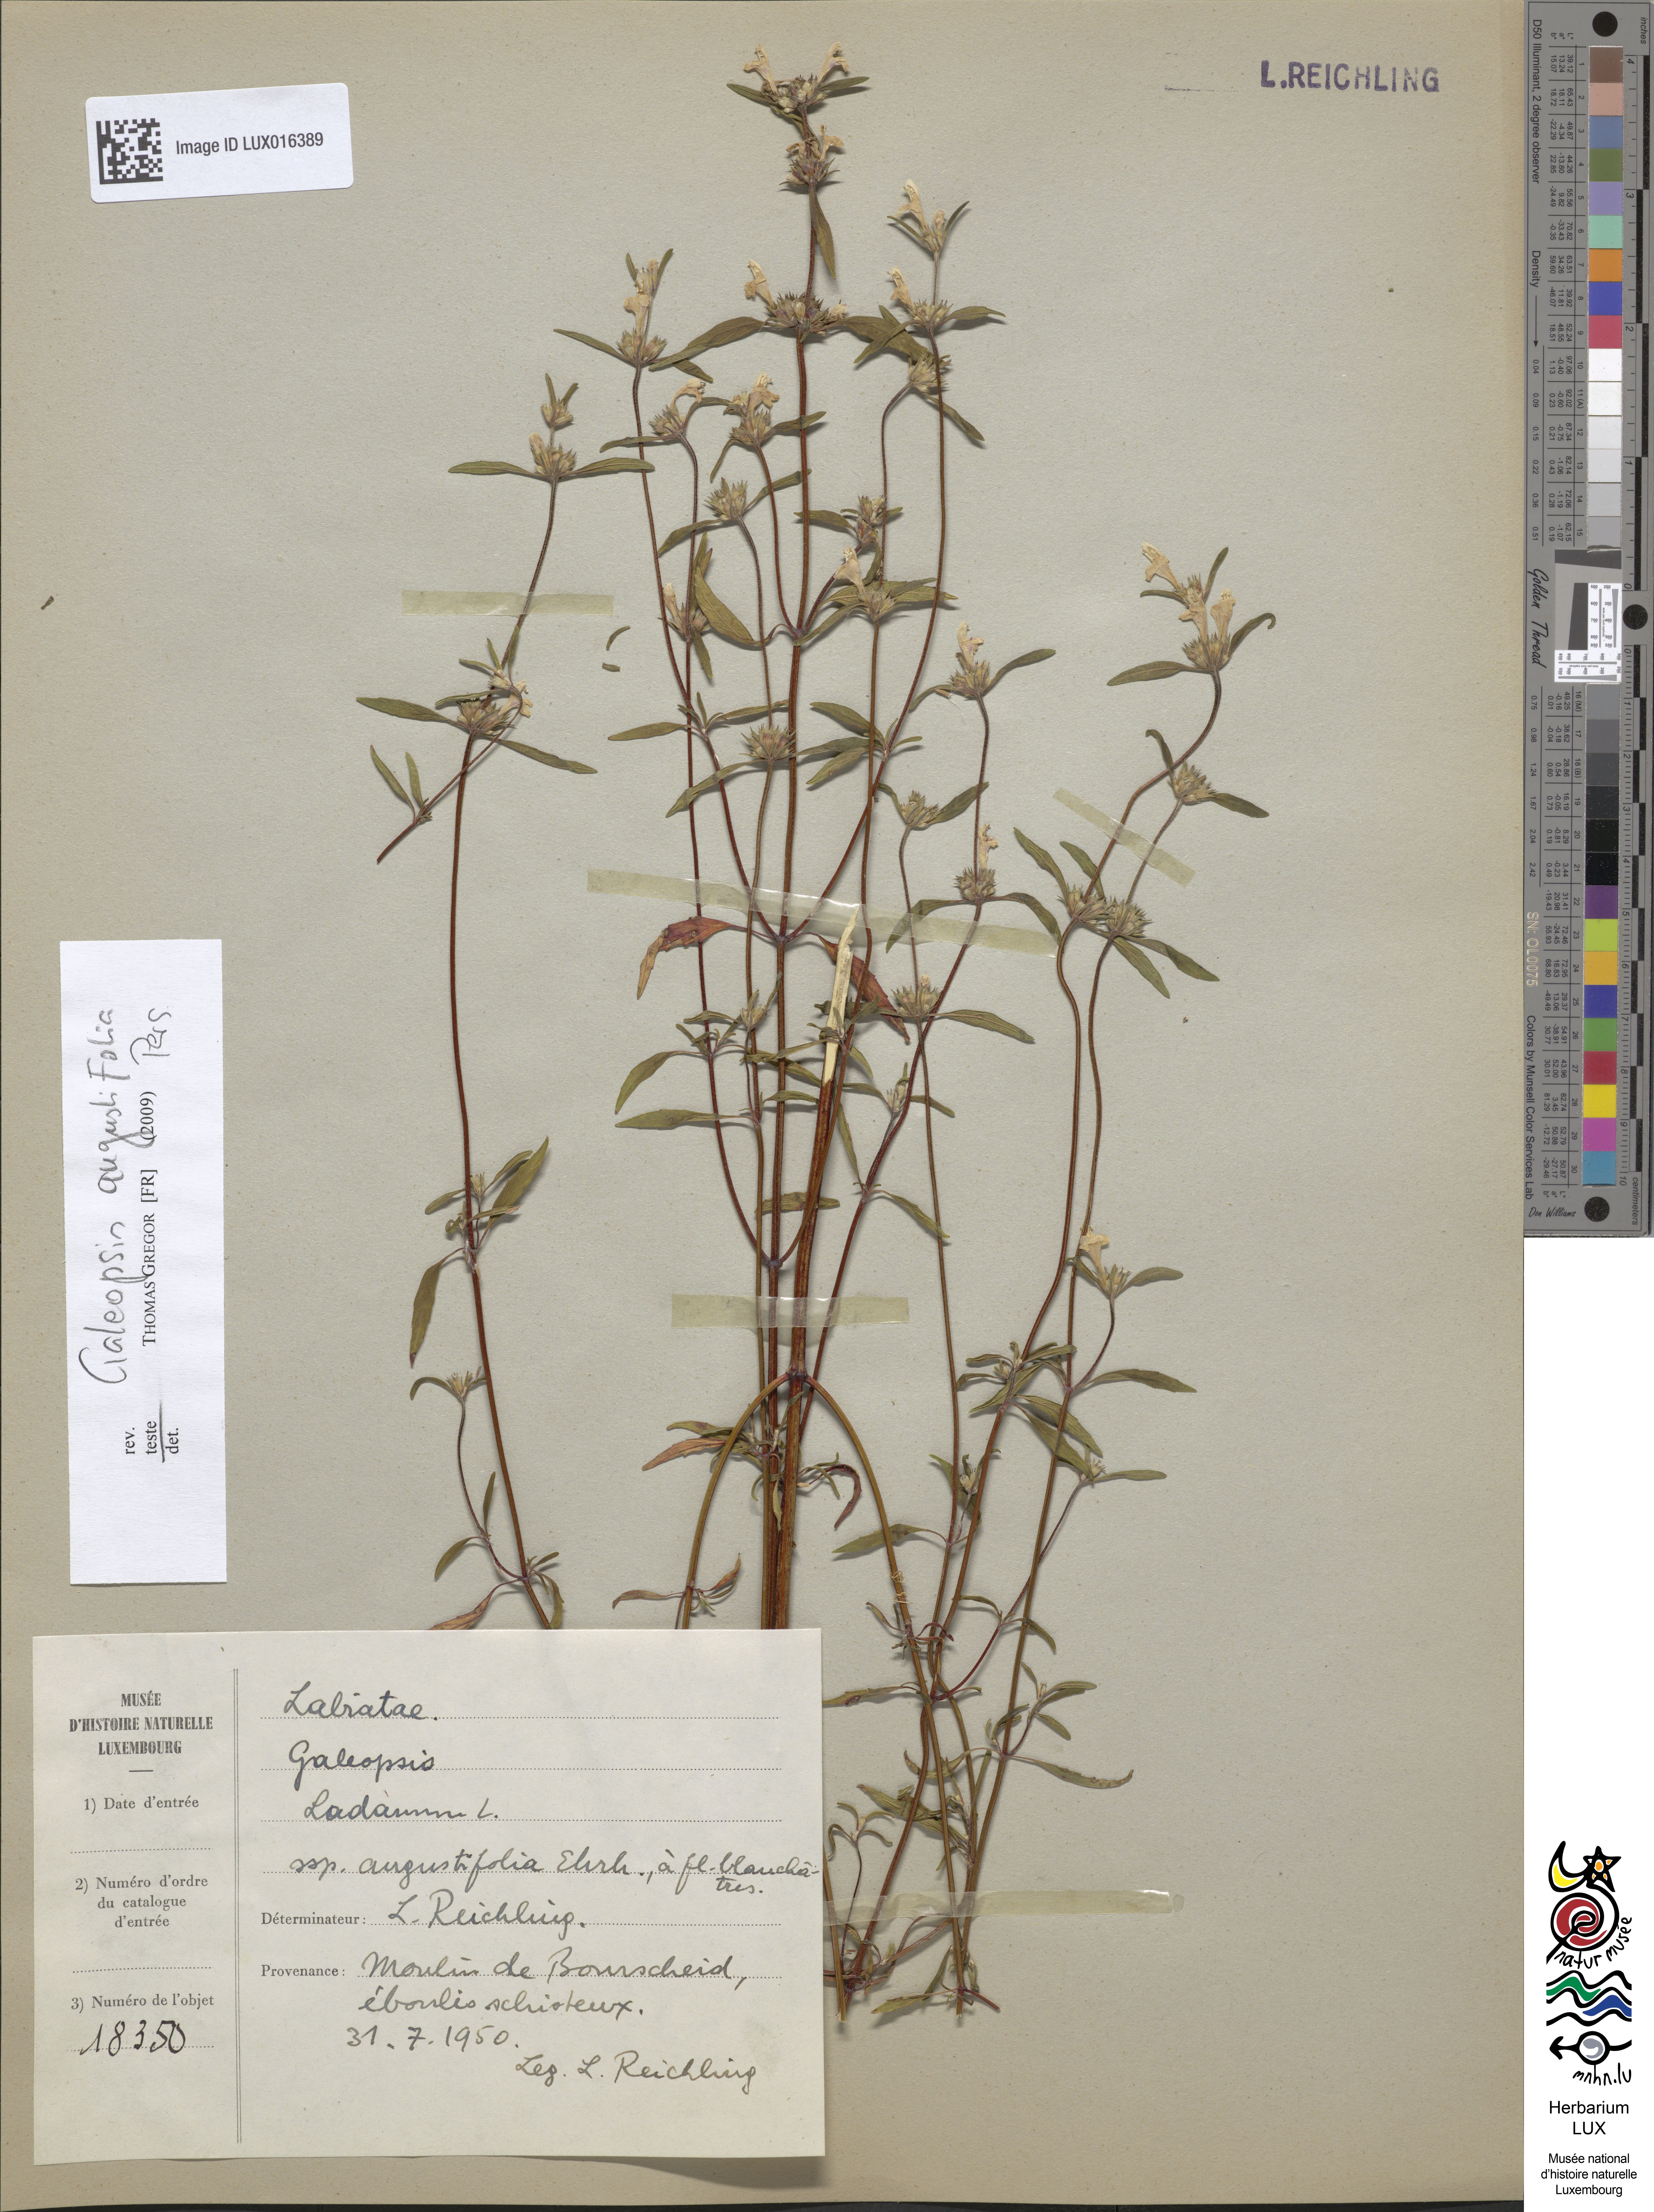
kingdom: Plantae
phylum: Tracheophyta
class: Magnoliopsida
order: Lamiales
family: Lamiaceae
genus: Galeopsis
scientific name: Galeopsis angustifolia
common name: Red hemp-nettle
